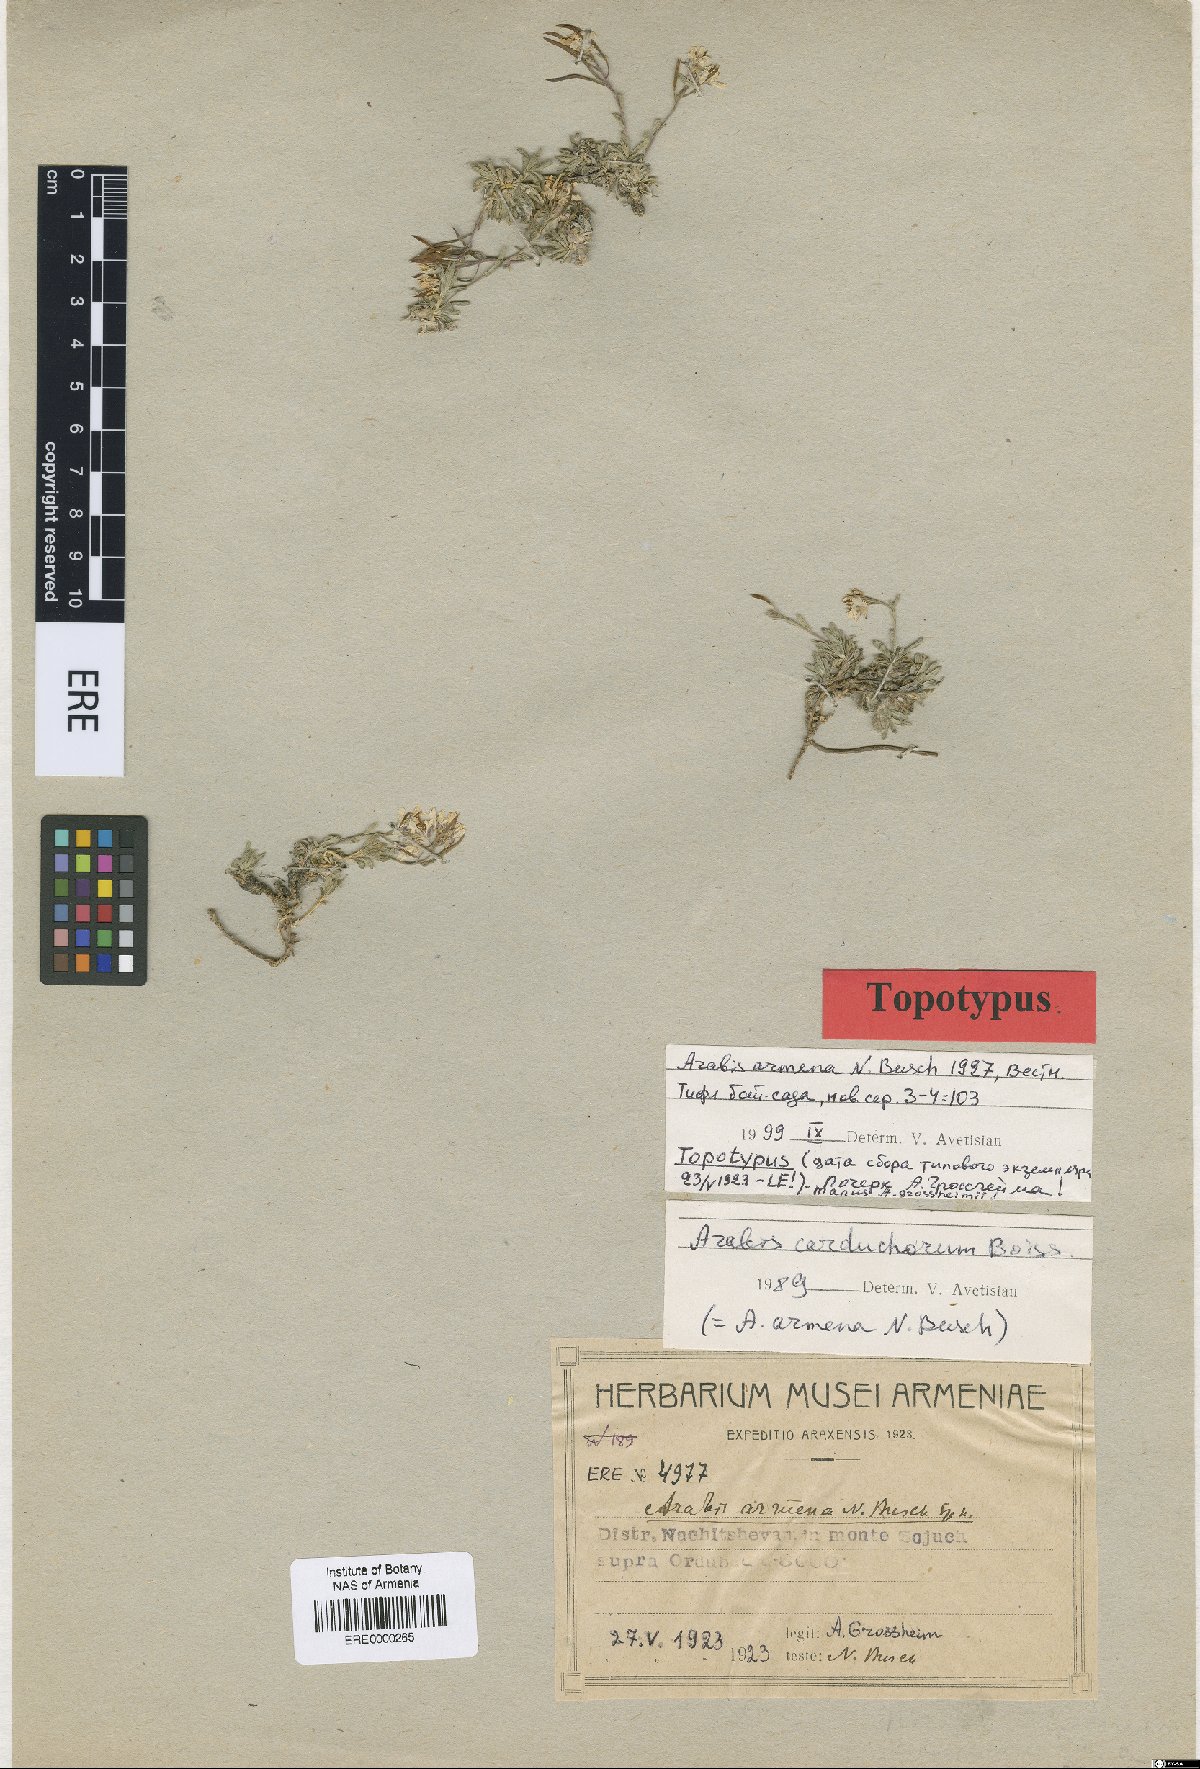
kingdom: Plantae
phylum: Tracheophyta
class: Magnoliopsida
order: Brassicales
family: Brassicaceae
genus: Arabis
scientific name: Arabis carduchorum
